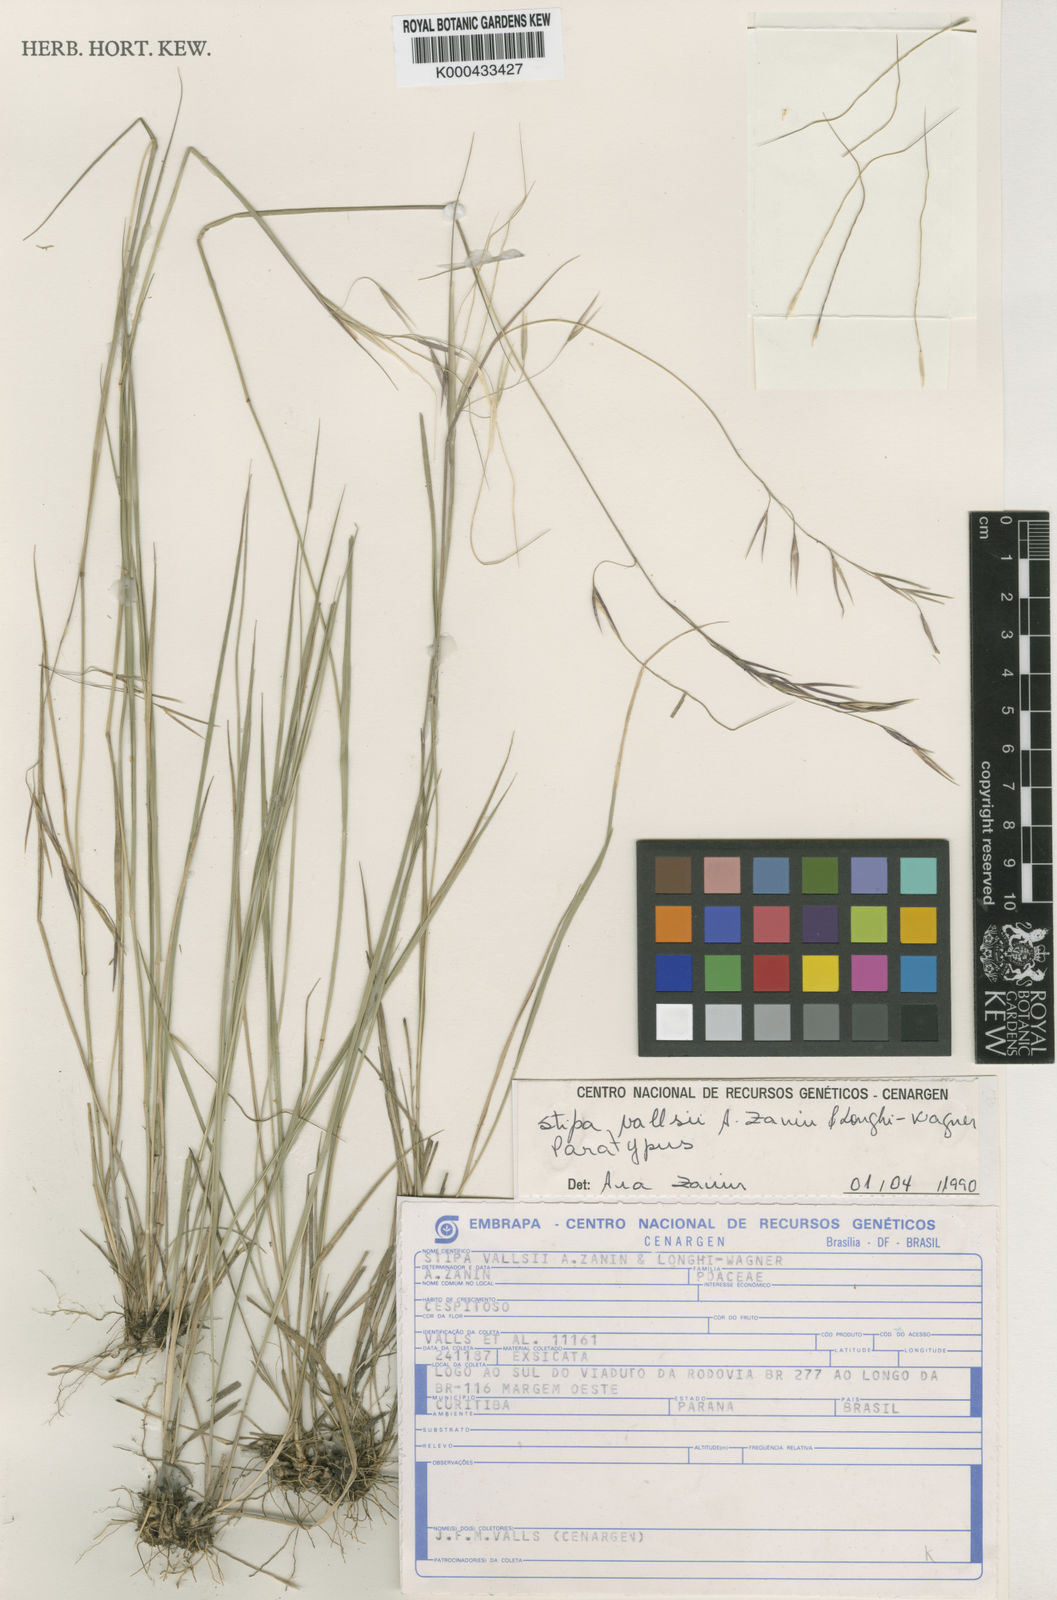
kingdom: Plantae
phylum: Tracheophyta
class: Liliopsida
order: Poales
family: Poaceae
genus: Nassella
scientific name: Nassella vallsii
